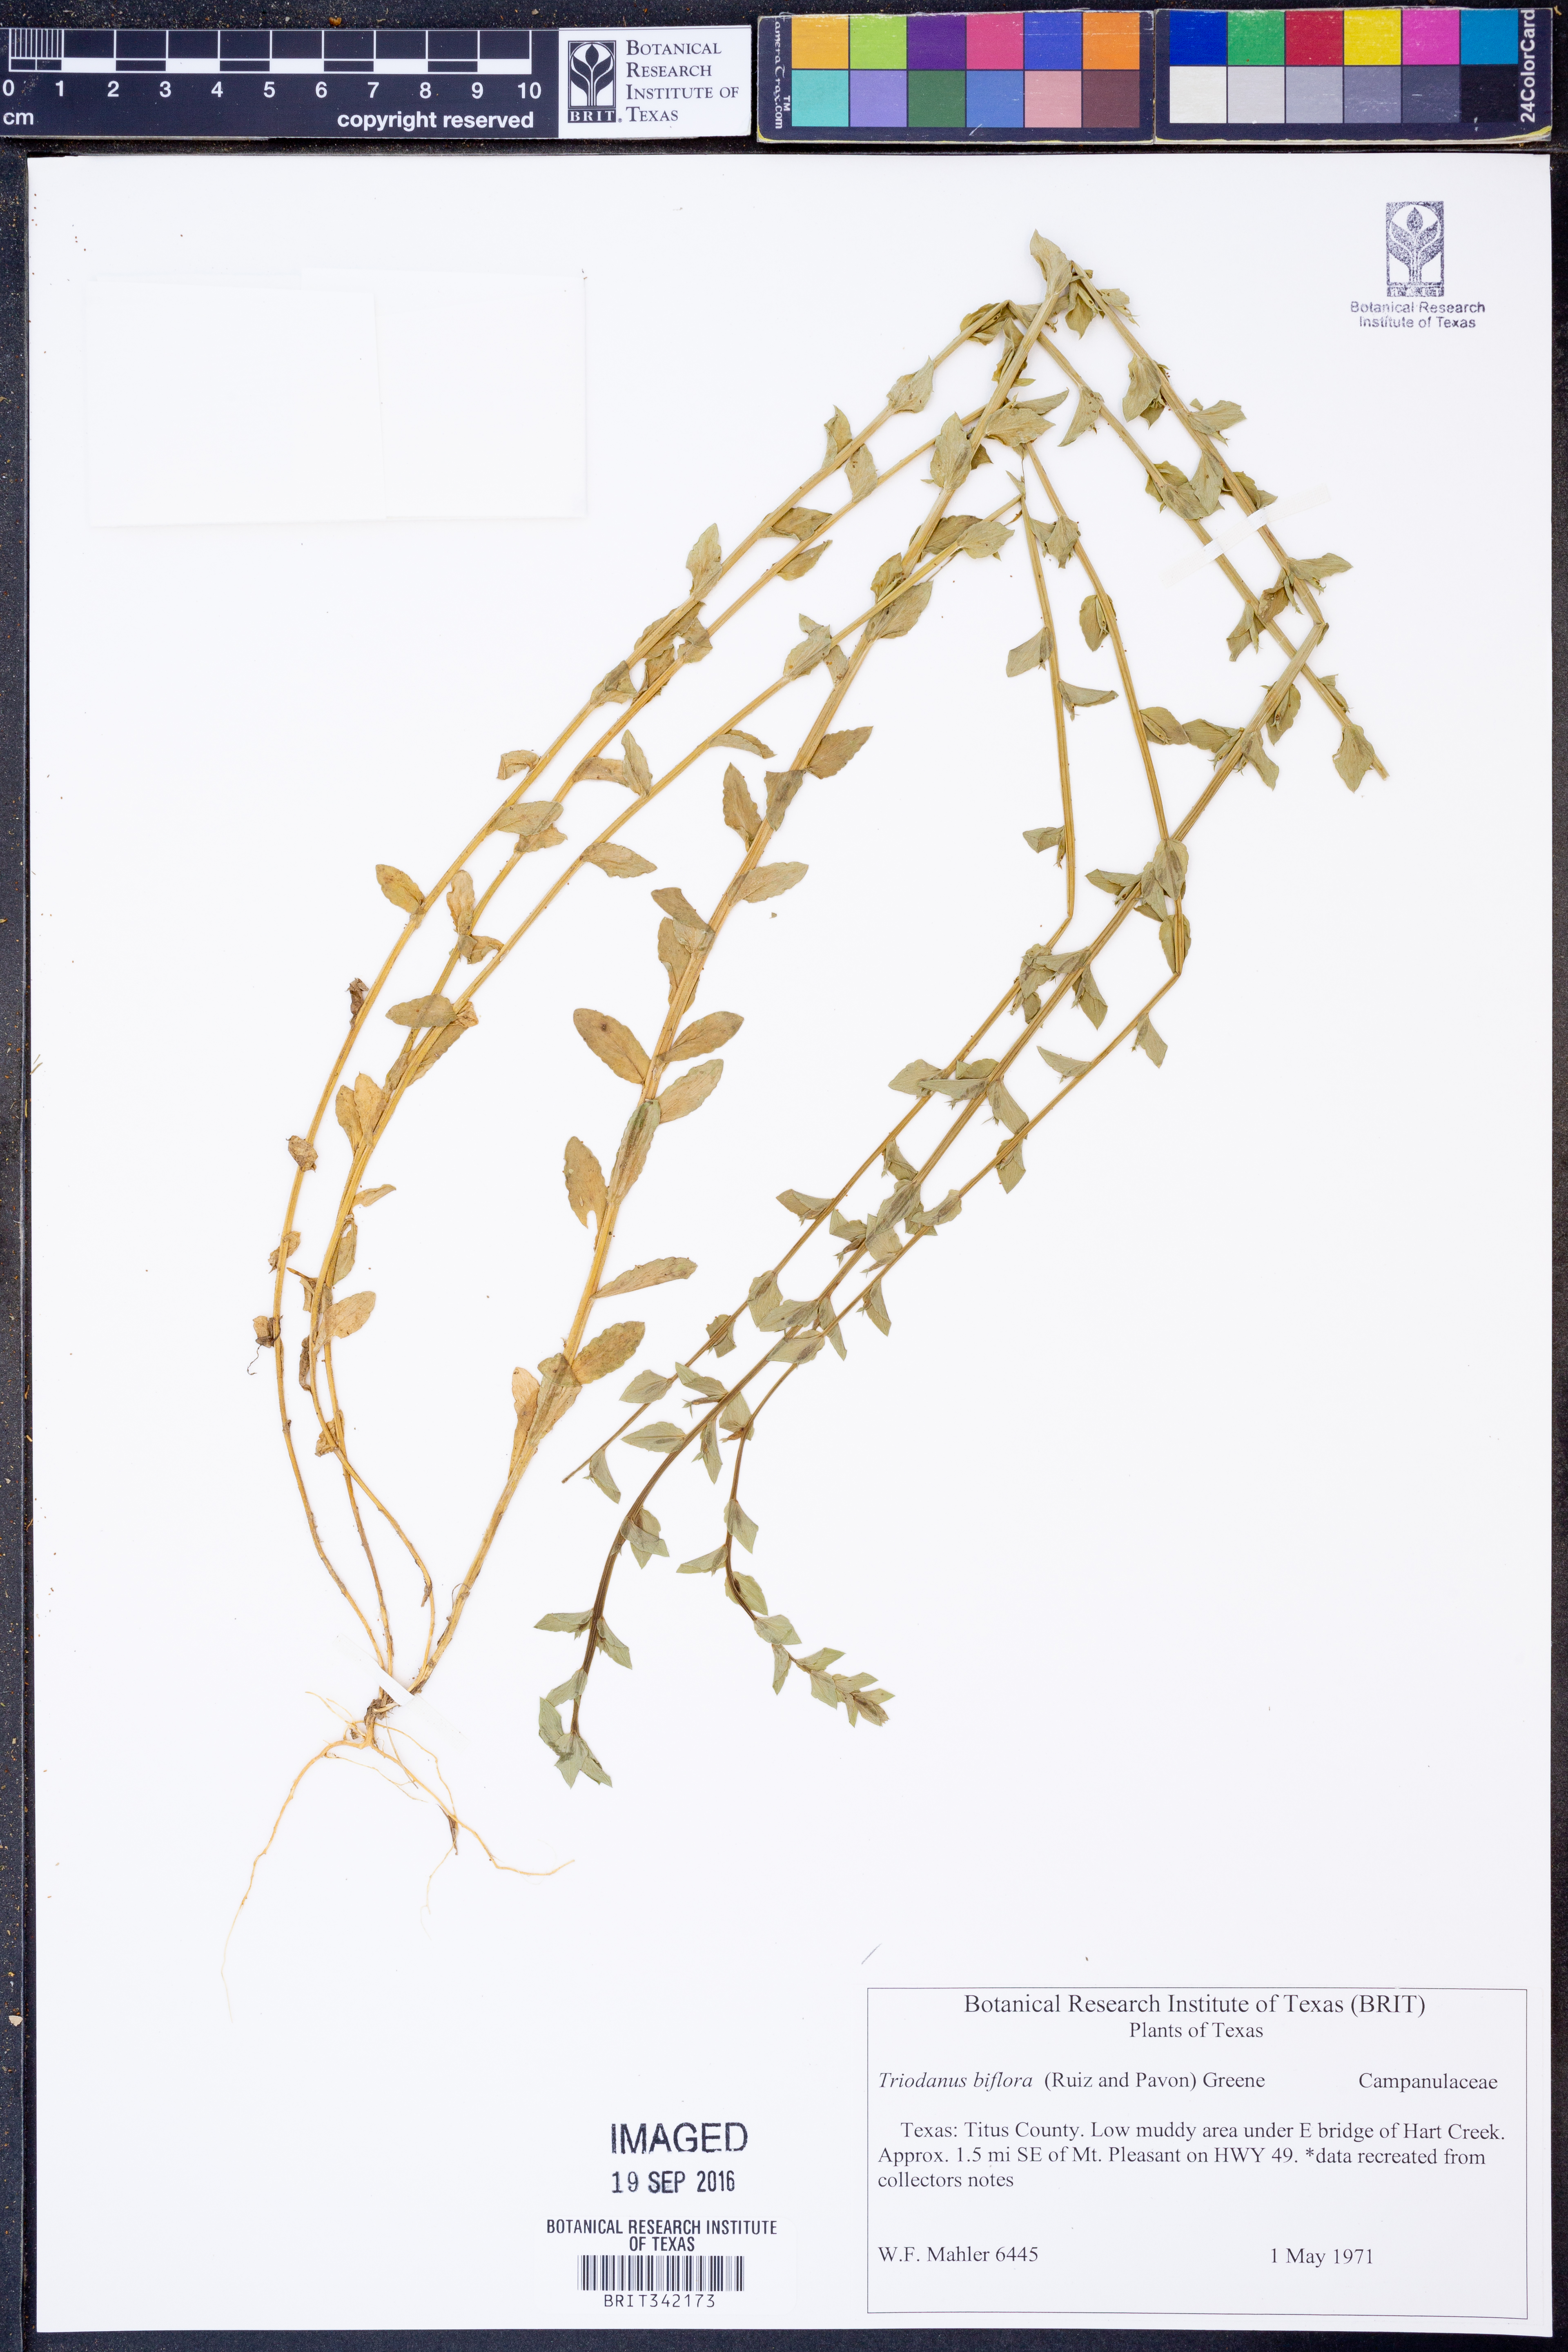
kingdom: Plantae
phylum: Tracheophyta
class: Magnoliopsida
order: Asterales
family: Campanulaceae
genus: Triodanis
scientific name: Triodanis perfoliata
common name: Clasping venus' looking-glass
